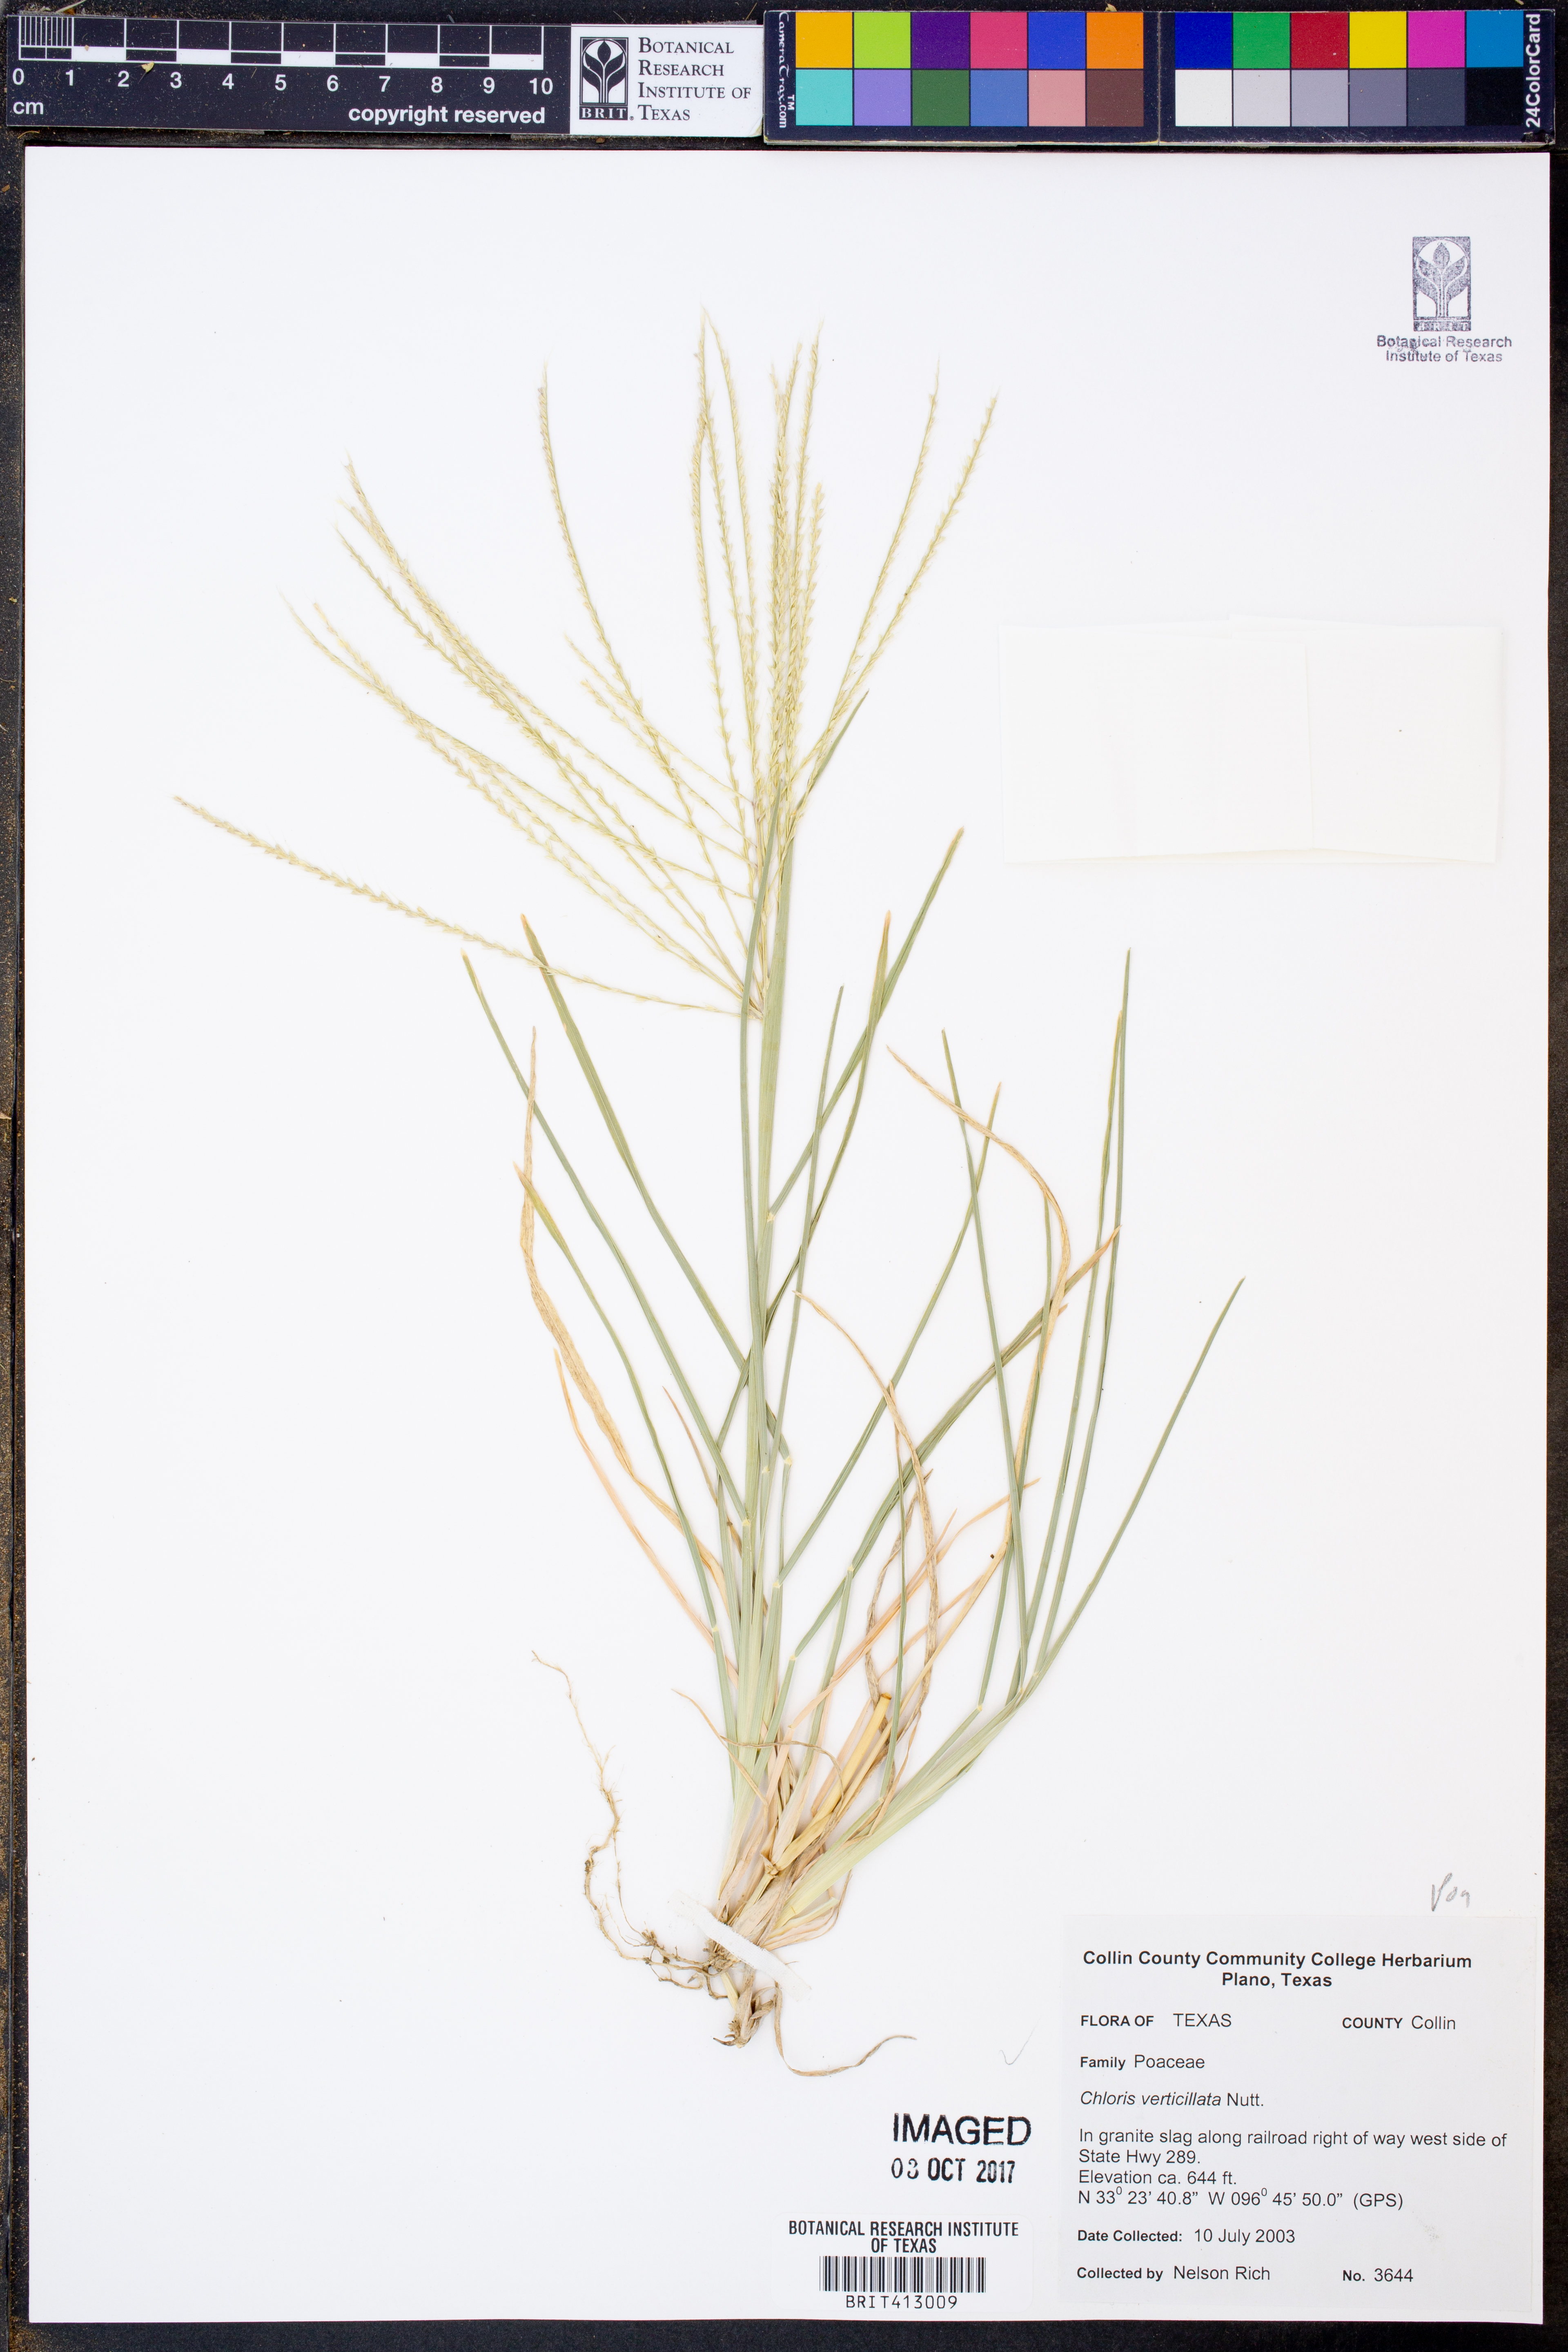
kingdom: Plantae
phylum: Tracheophyta
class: Liliopsida
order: Poales
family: Poaceae
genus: Chloris
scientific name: Chloris verticillata
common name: Tumble windmill grass
